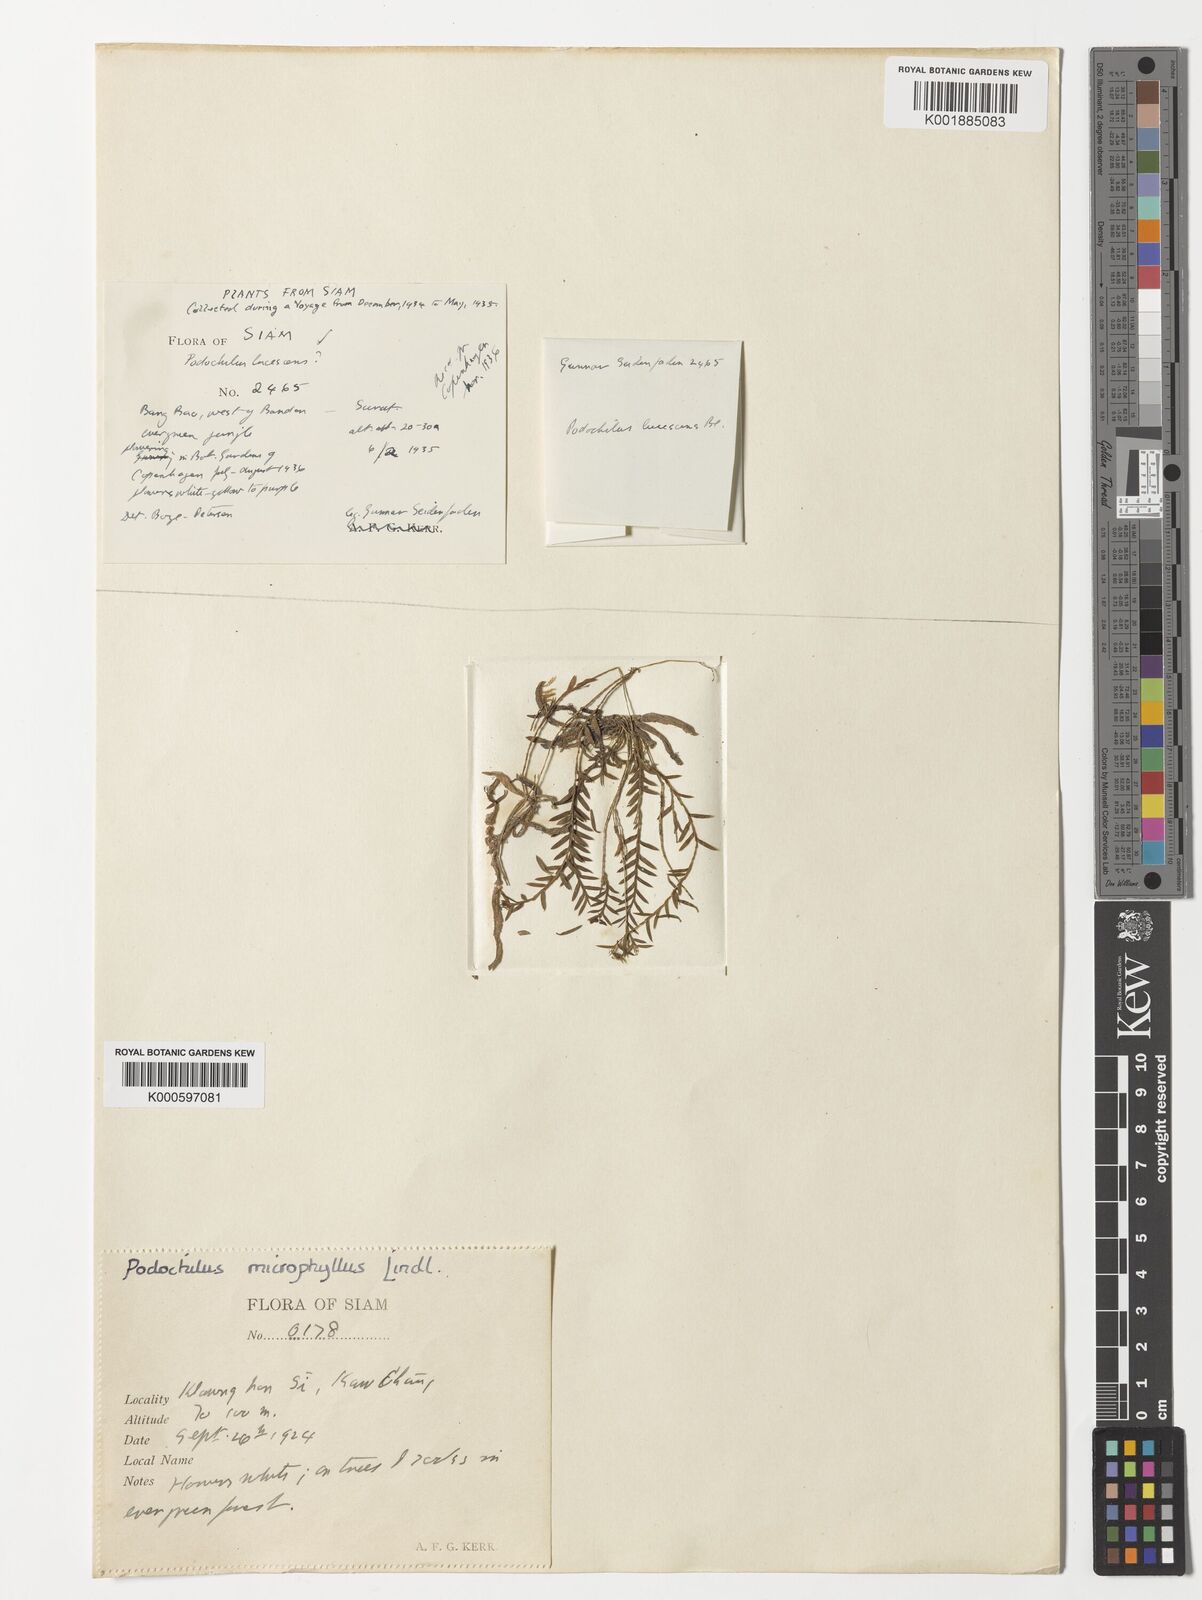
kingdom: Plantae
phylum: Tracheophyta
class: Liliopsida
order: Asparagales
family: Orchidaceae
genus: Podochilus
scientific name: Podochilus microphyllus
